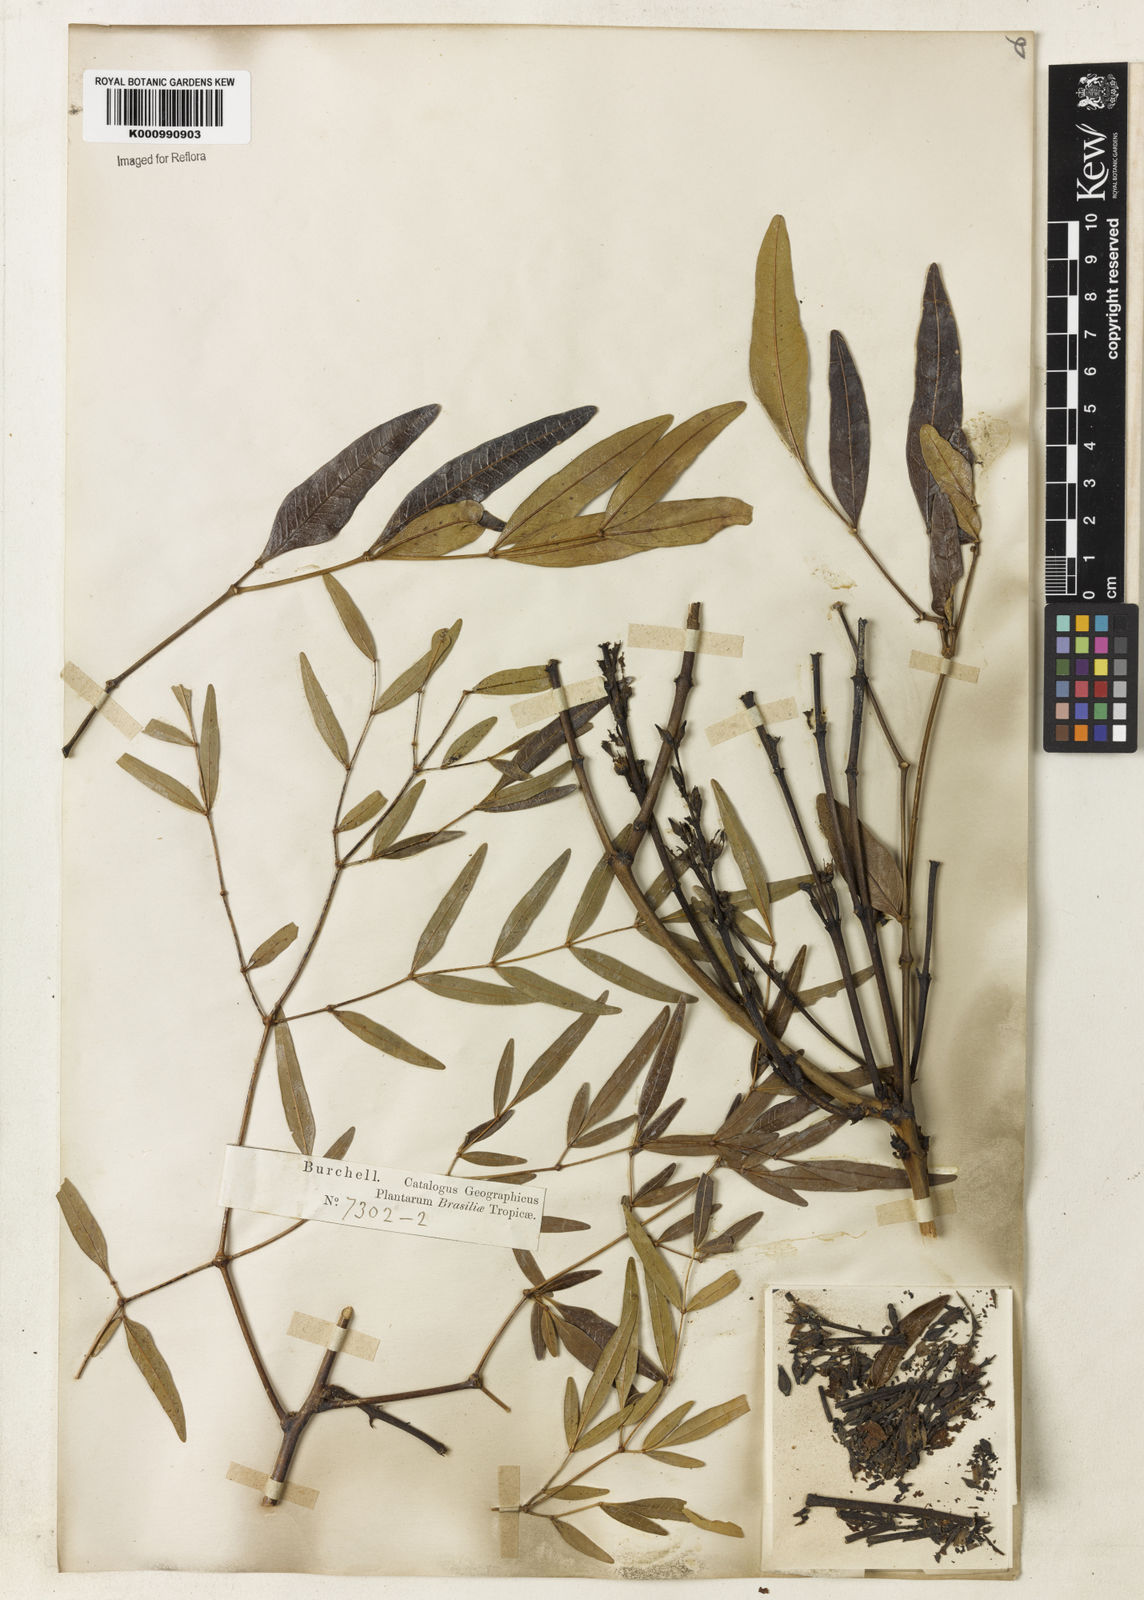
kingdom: Plantae
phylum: Tracheophyta
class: Magnoliopsida
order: Lamiales
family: Bignoniaceae
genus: Adenocalymma
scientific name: Adenocalymma nodosum
